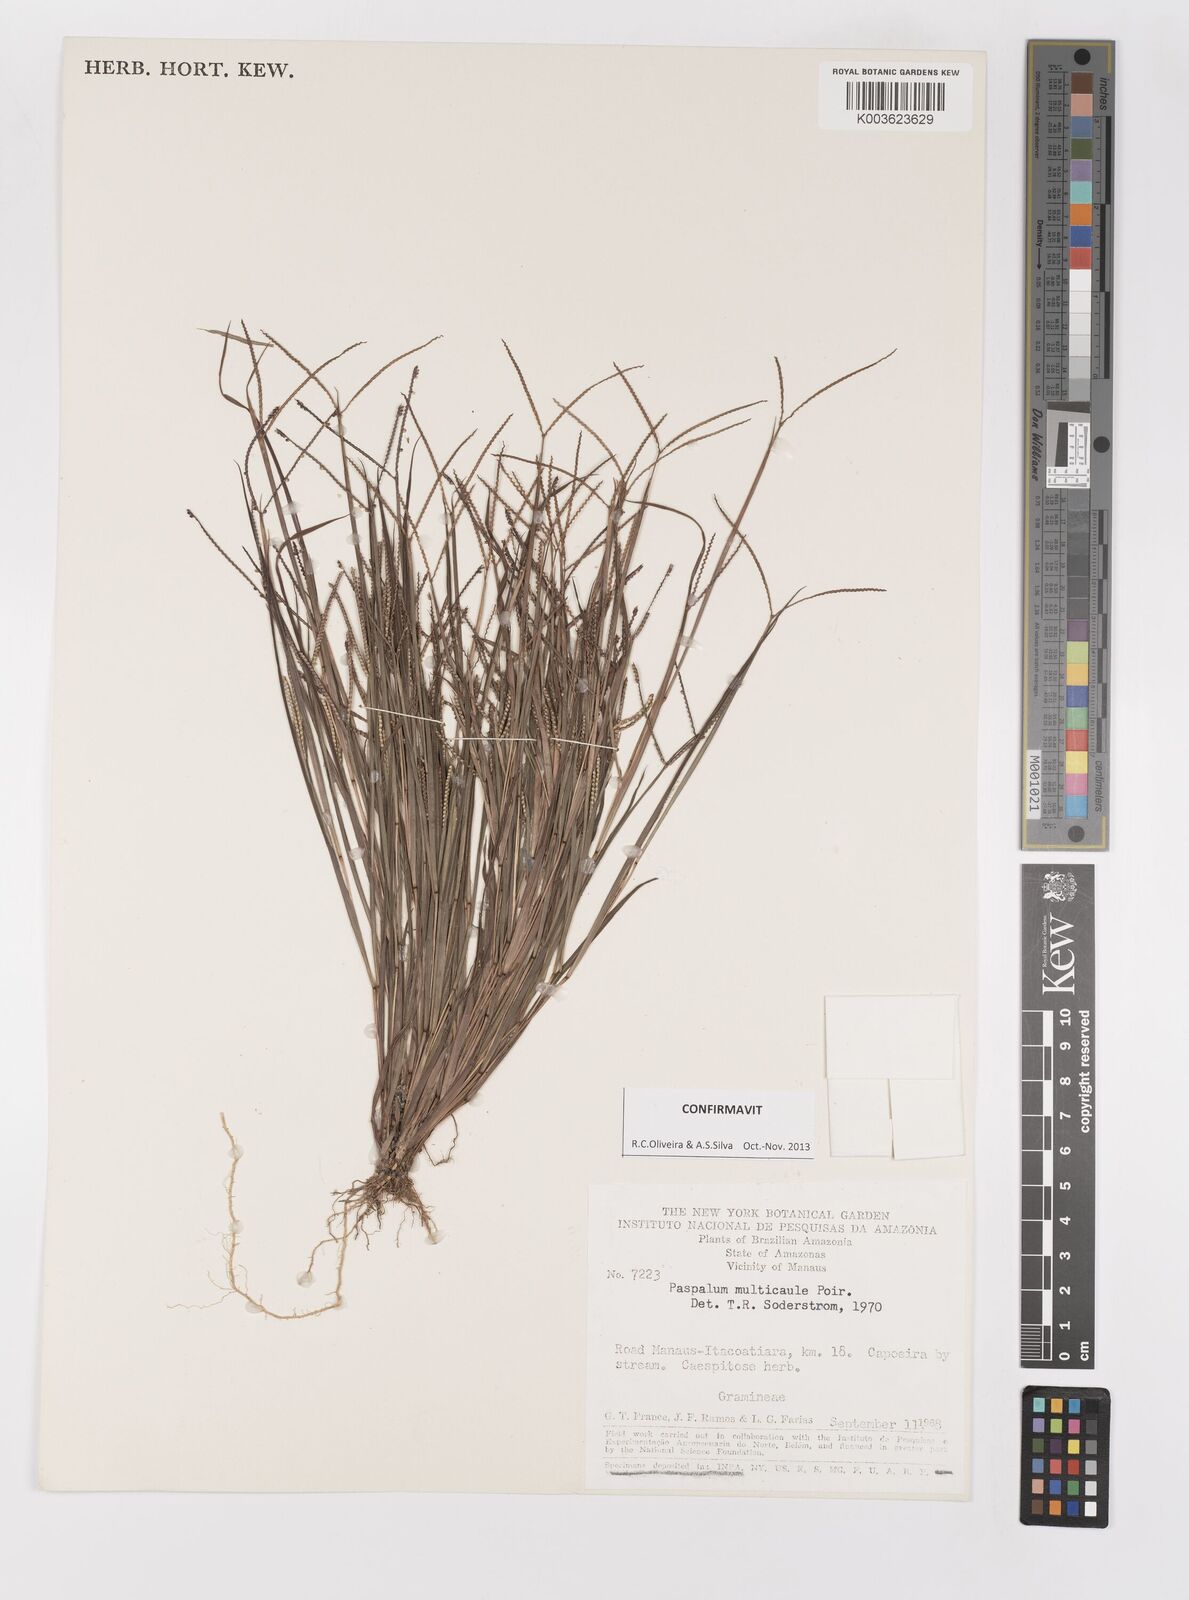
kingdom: Plantae
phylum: Tracheophyta
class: Liliopsida
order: Poales
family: Poaceae
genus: Paspalum
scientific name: Paspalum multicaule
